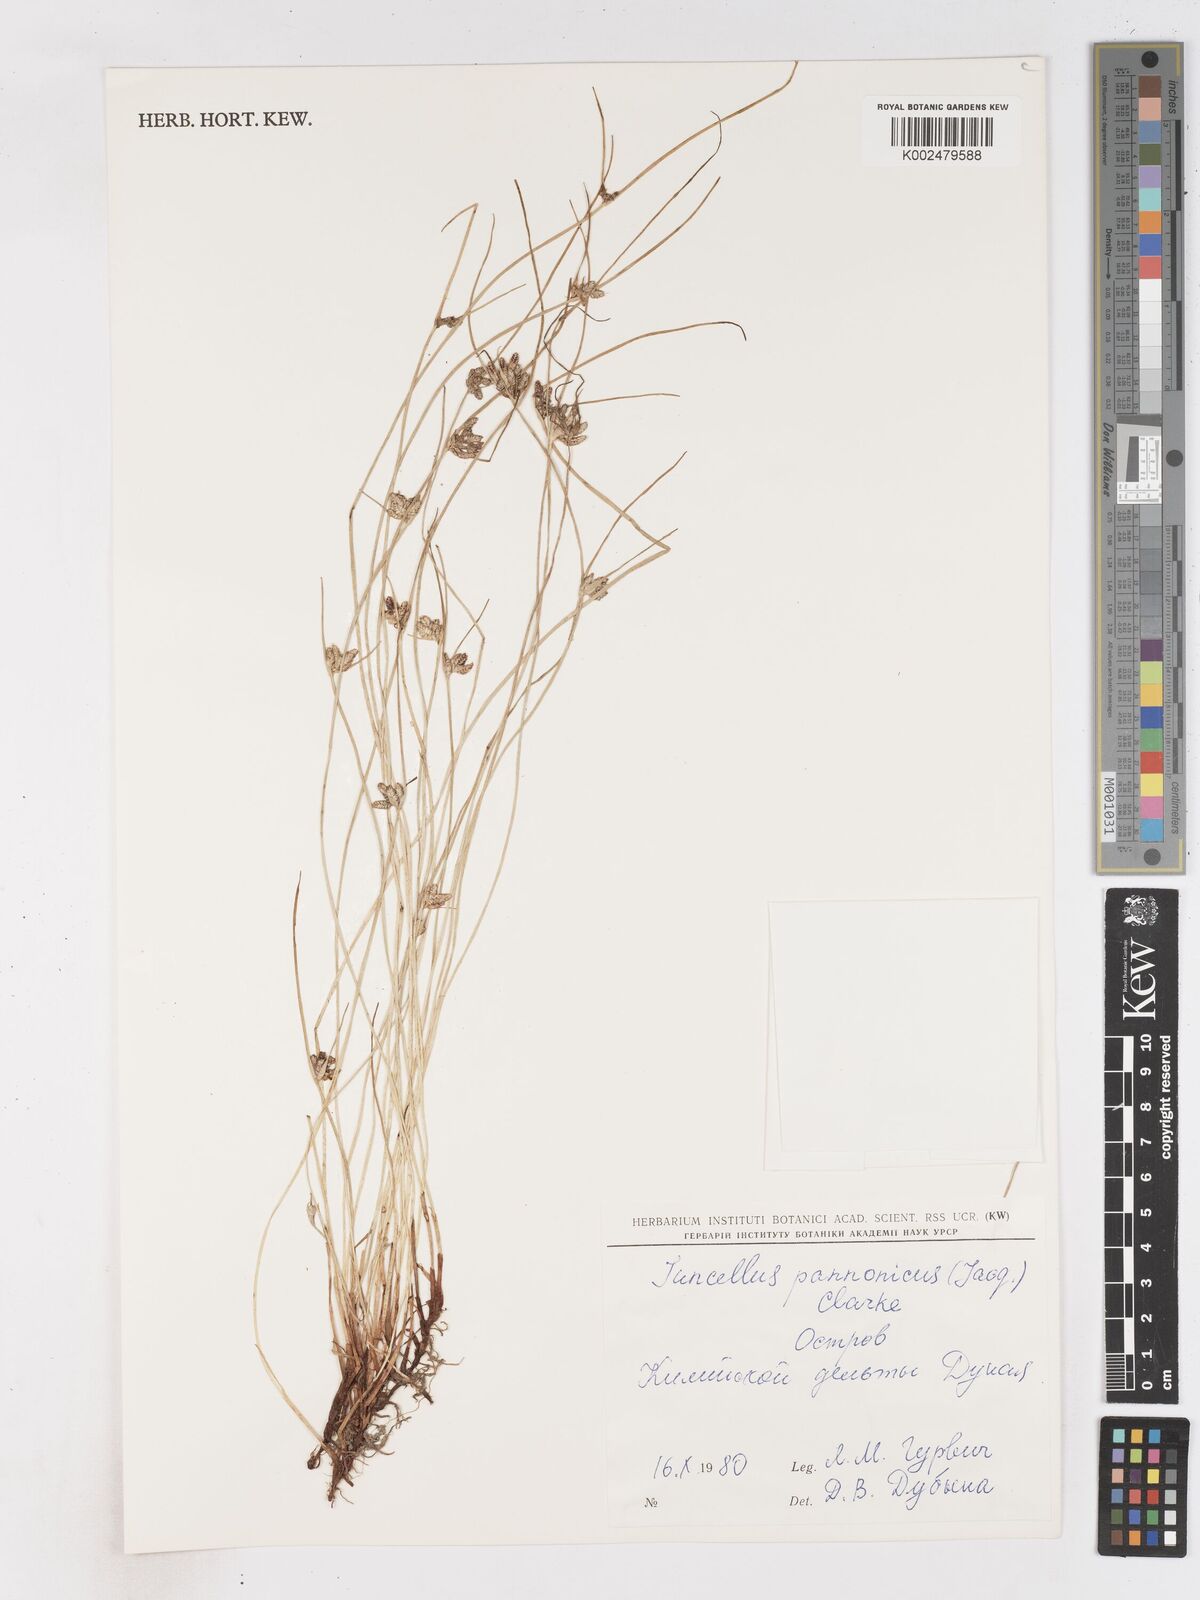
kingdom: Plantae
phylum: Tracheophyta
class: Liliopsida
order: Poales
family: Cyperaceae
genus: Cyperus
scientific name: Cyperus pannonicus
